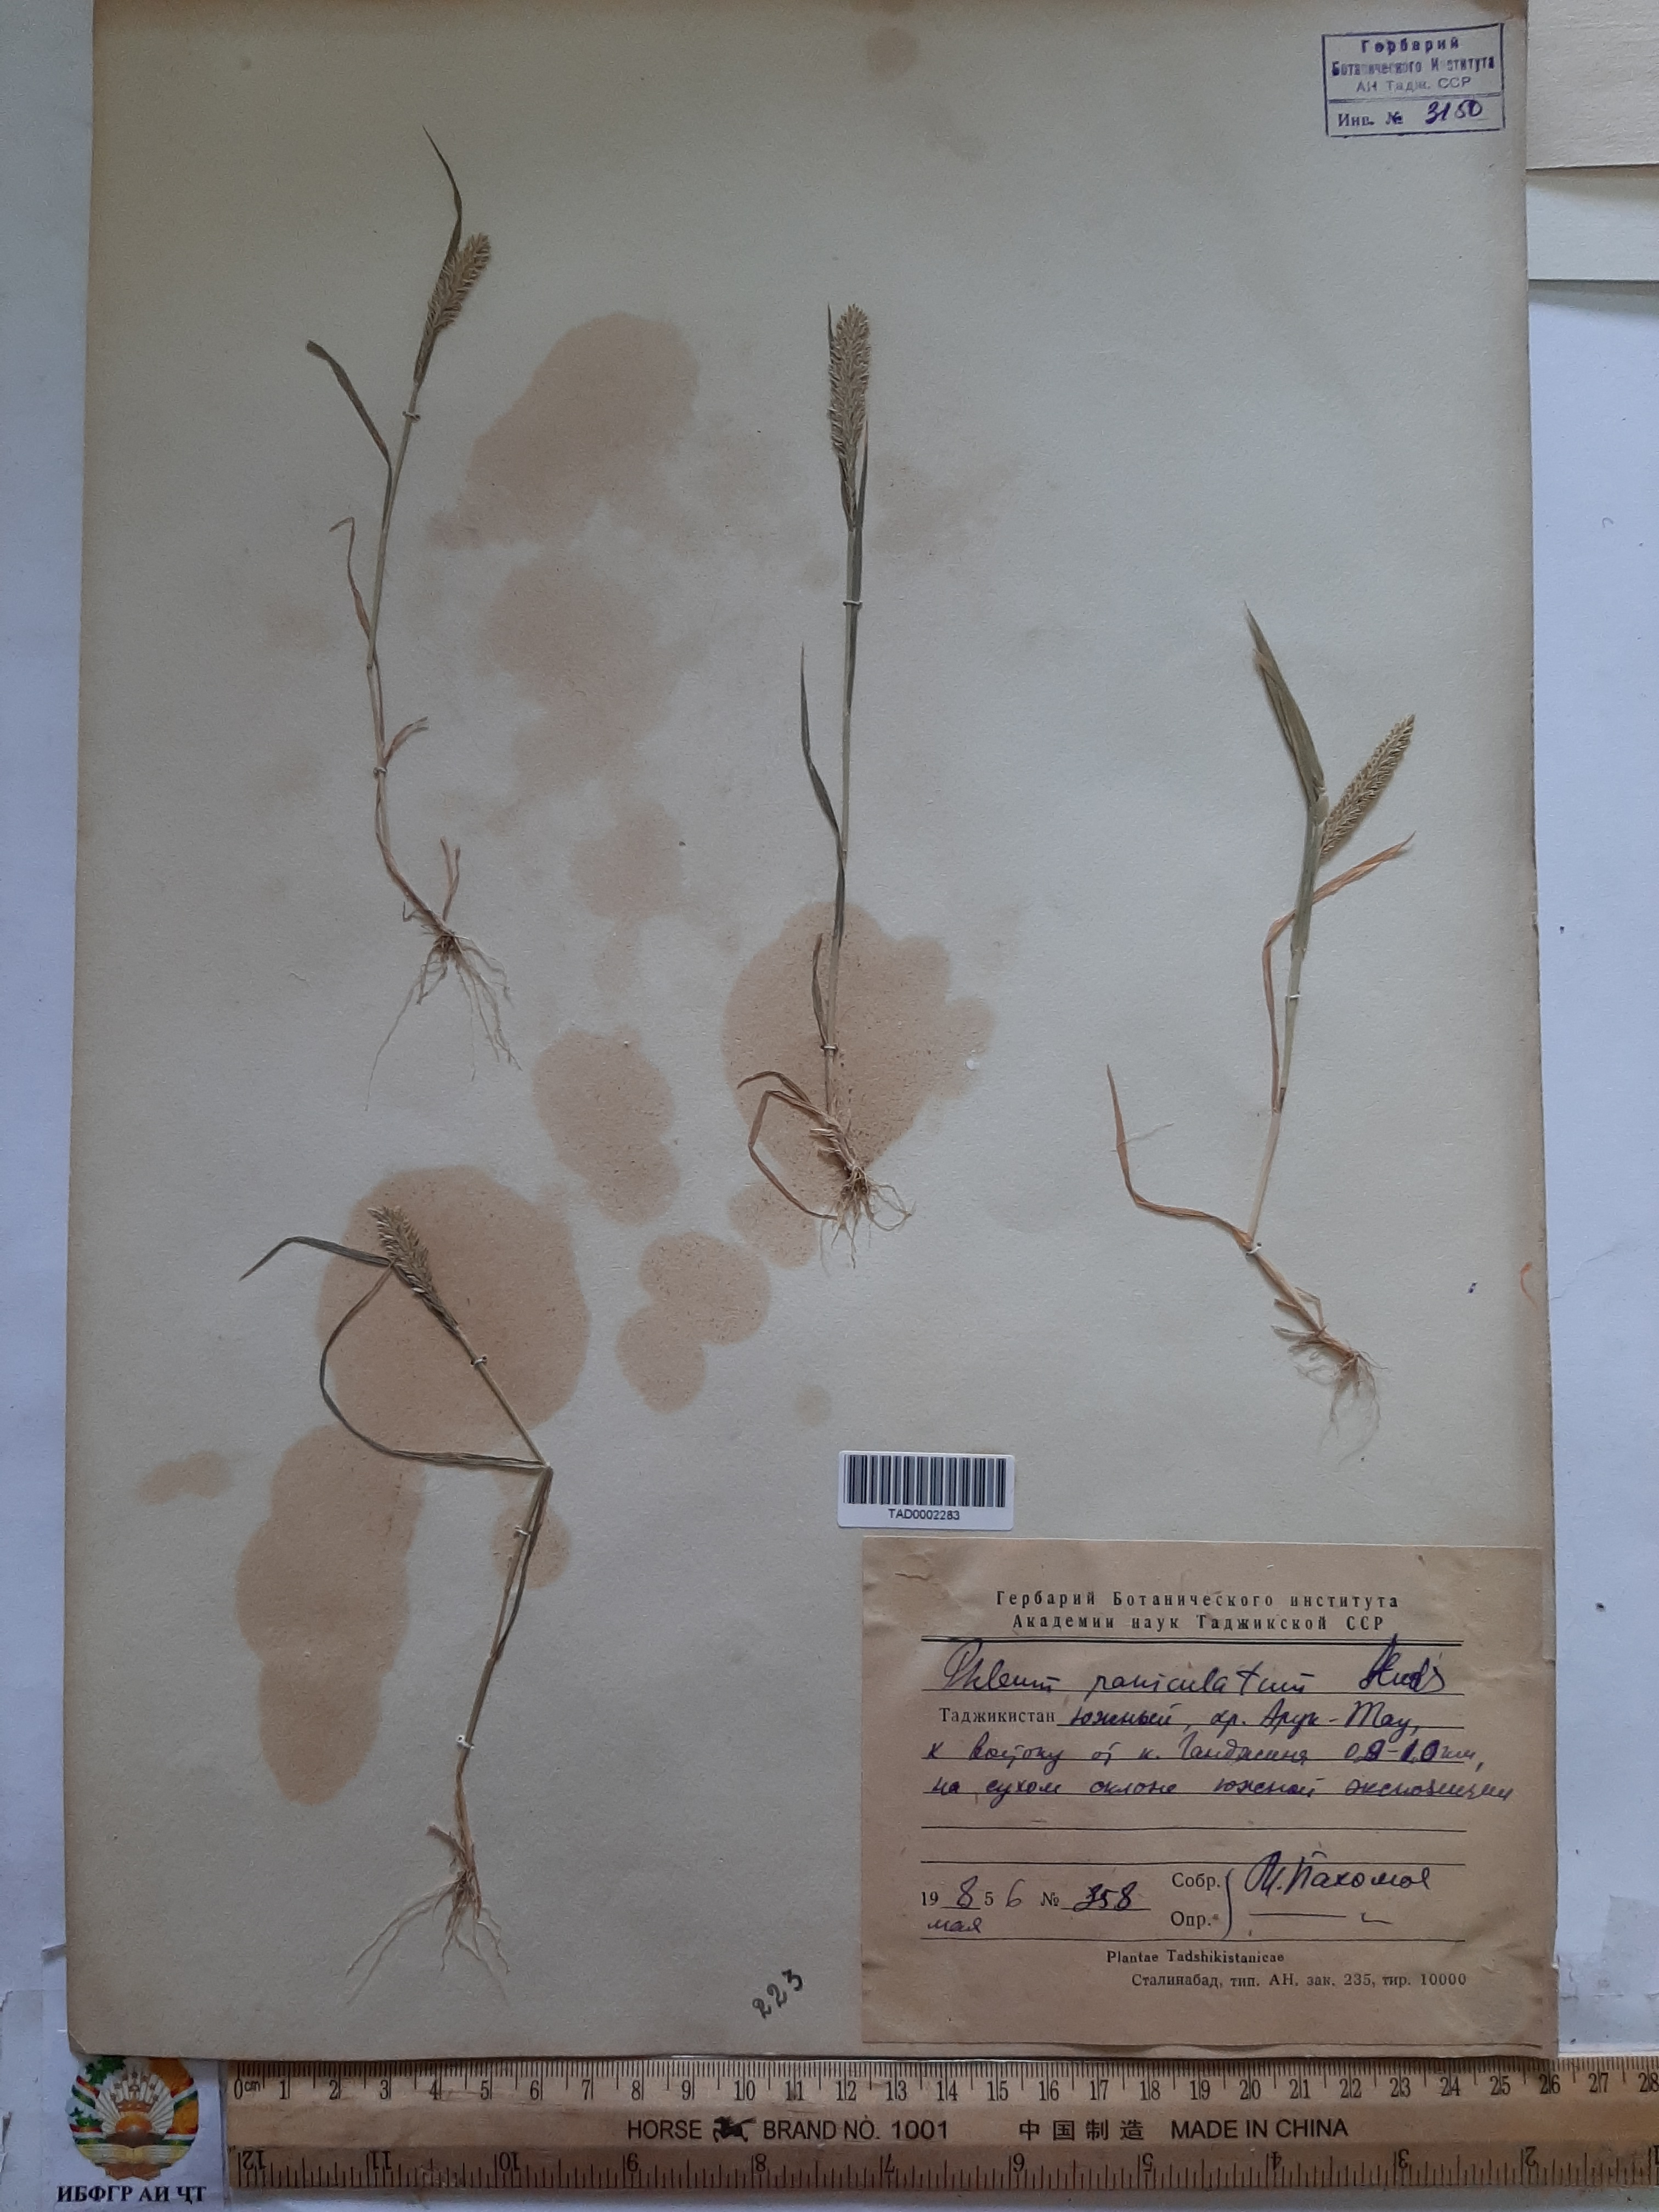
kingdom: Plantae
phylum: Tracheophyta
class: Liliopsida
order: Poales
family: Poaceae
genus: Phleum
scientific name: Phleum paniculatum
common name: British timothy
